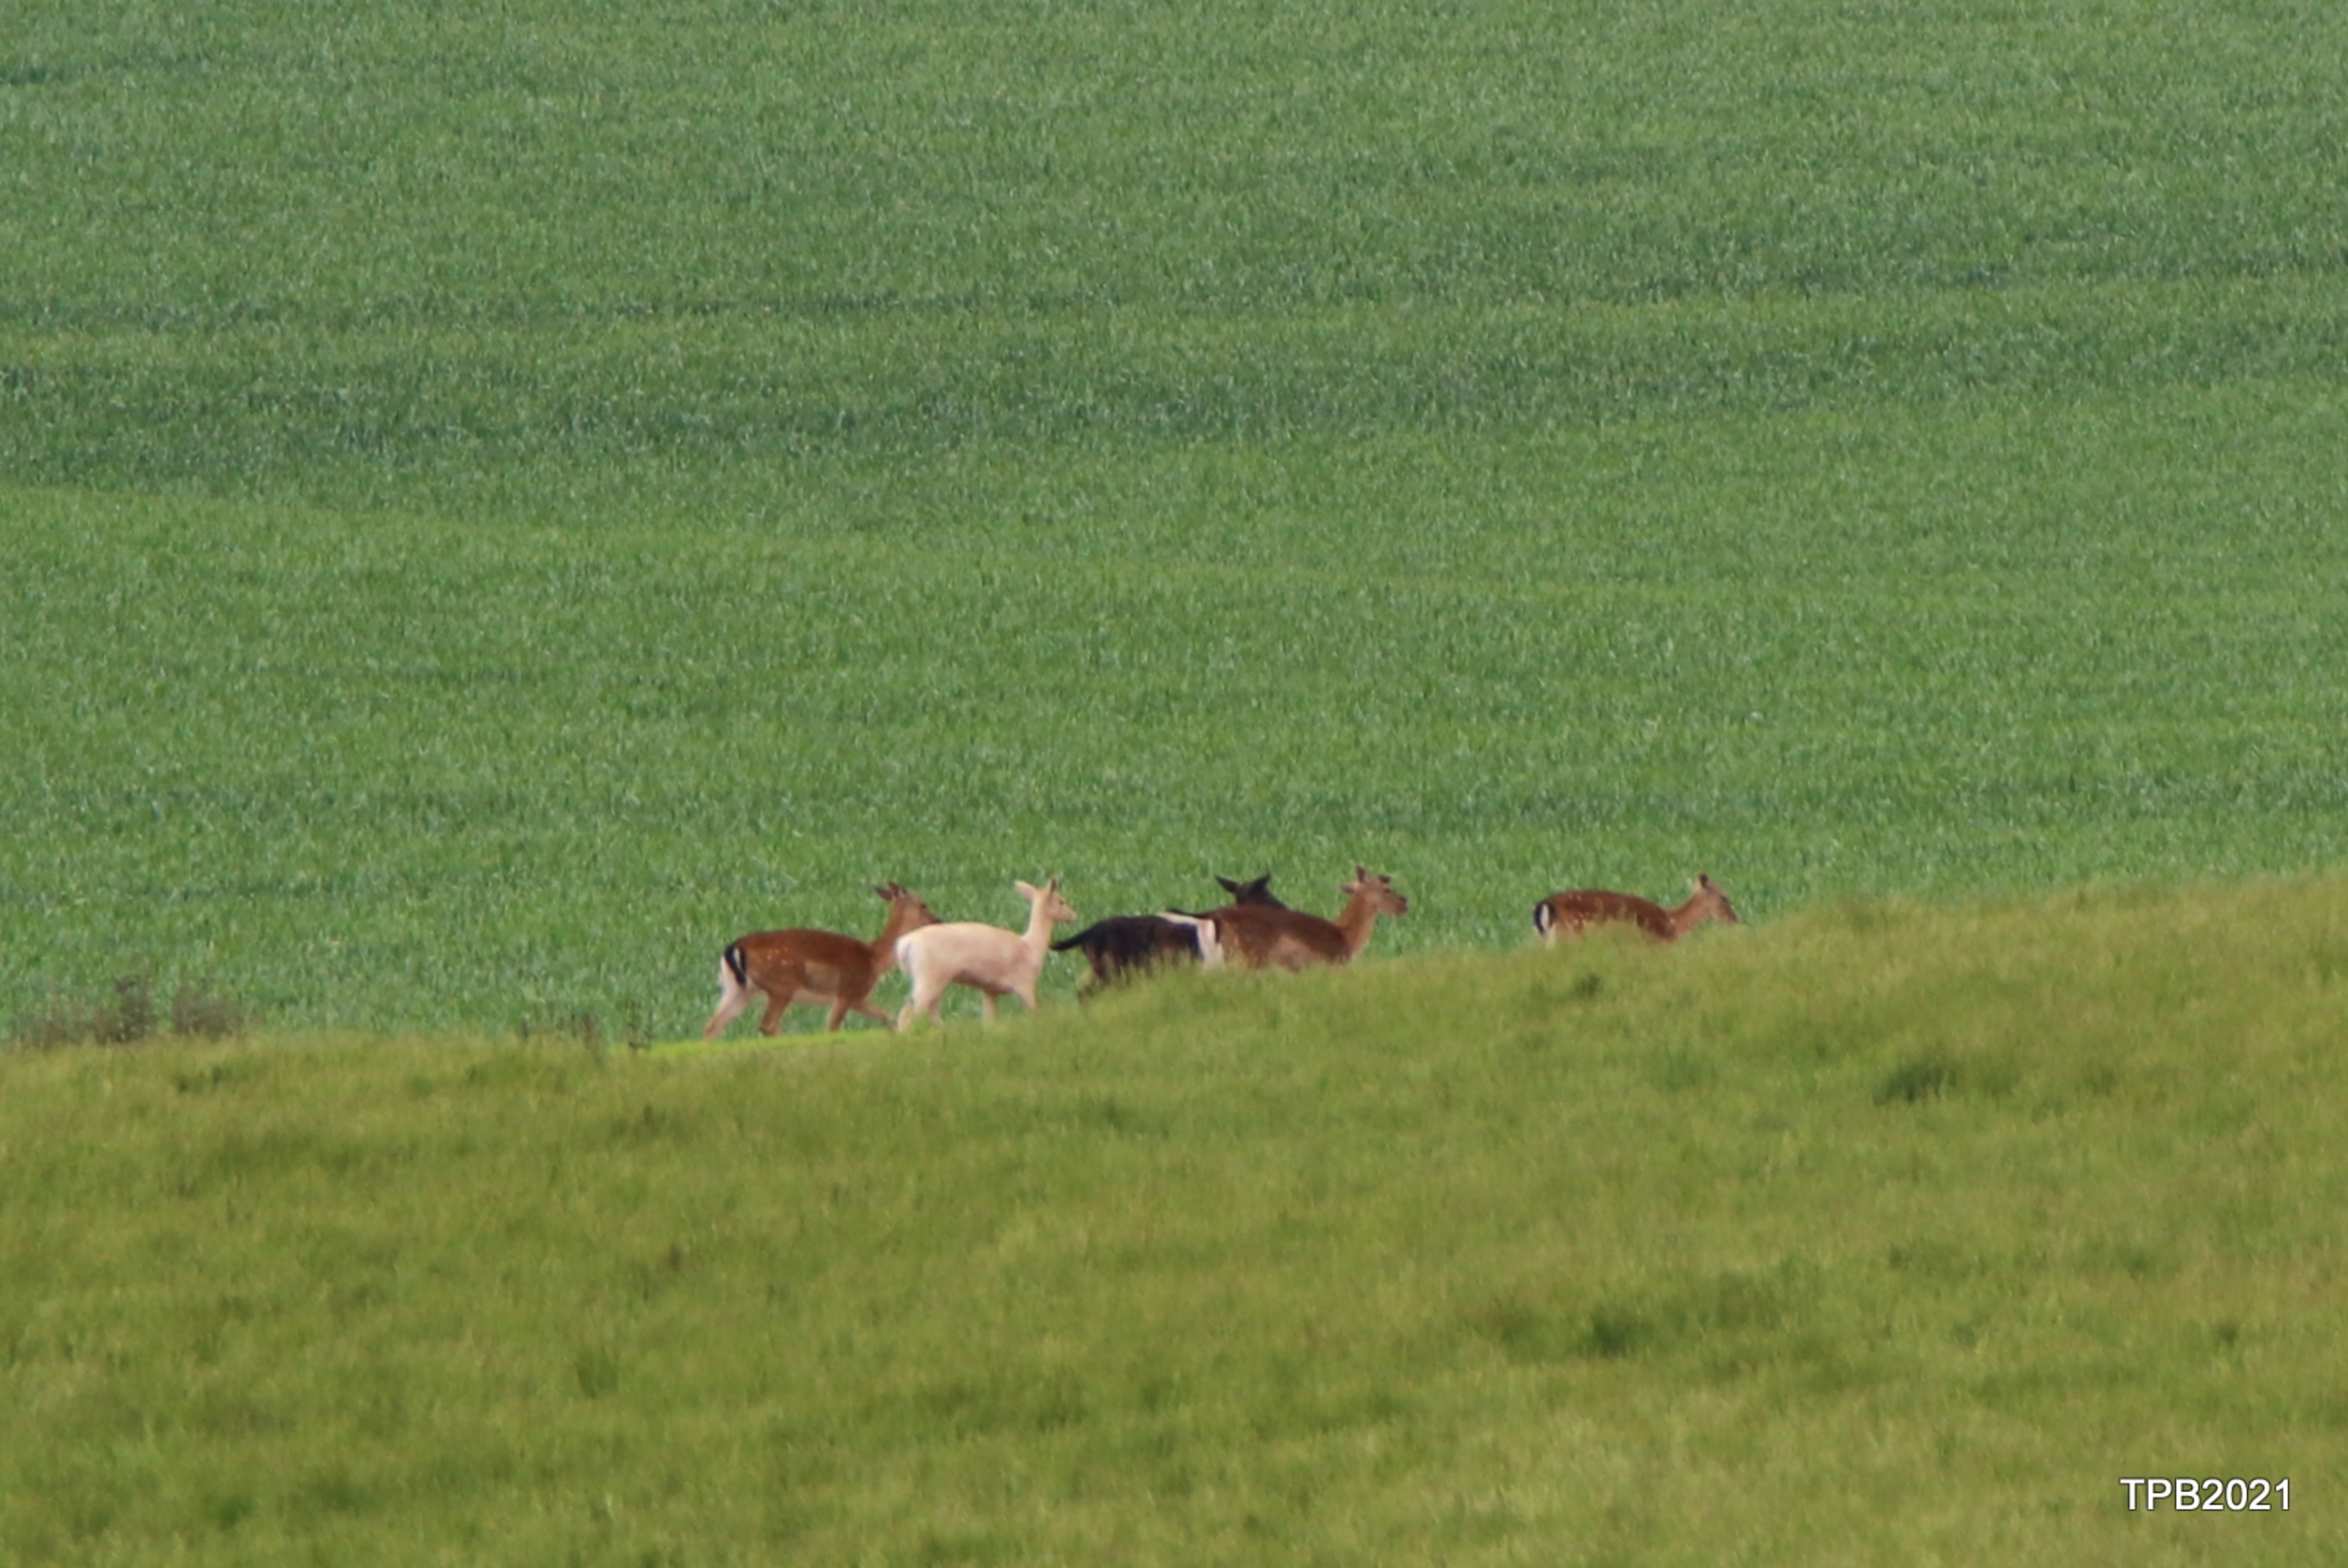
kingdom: Animalia
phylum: Chordata
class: Mammalia
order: Artiodactyla
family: Cervidae
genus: Dama
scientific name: Dama dama
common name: Dådyr
